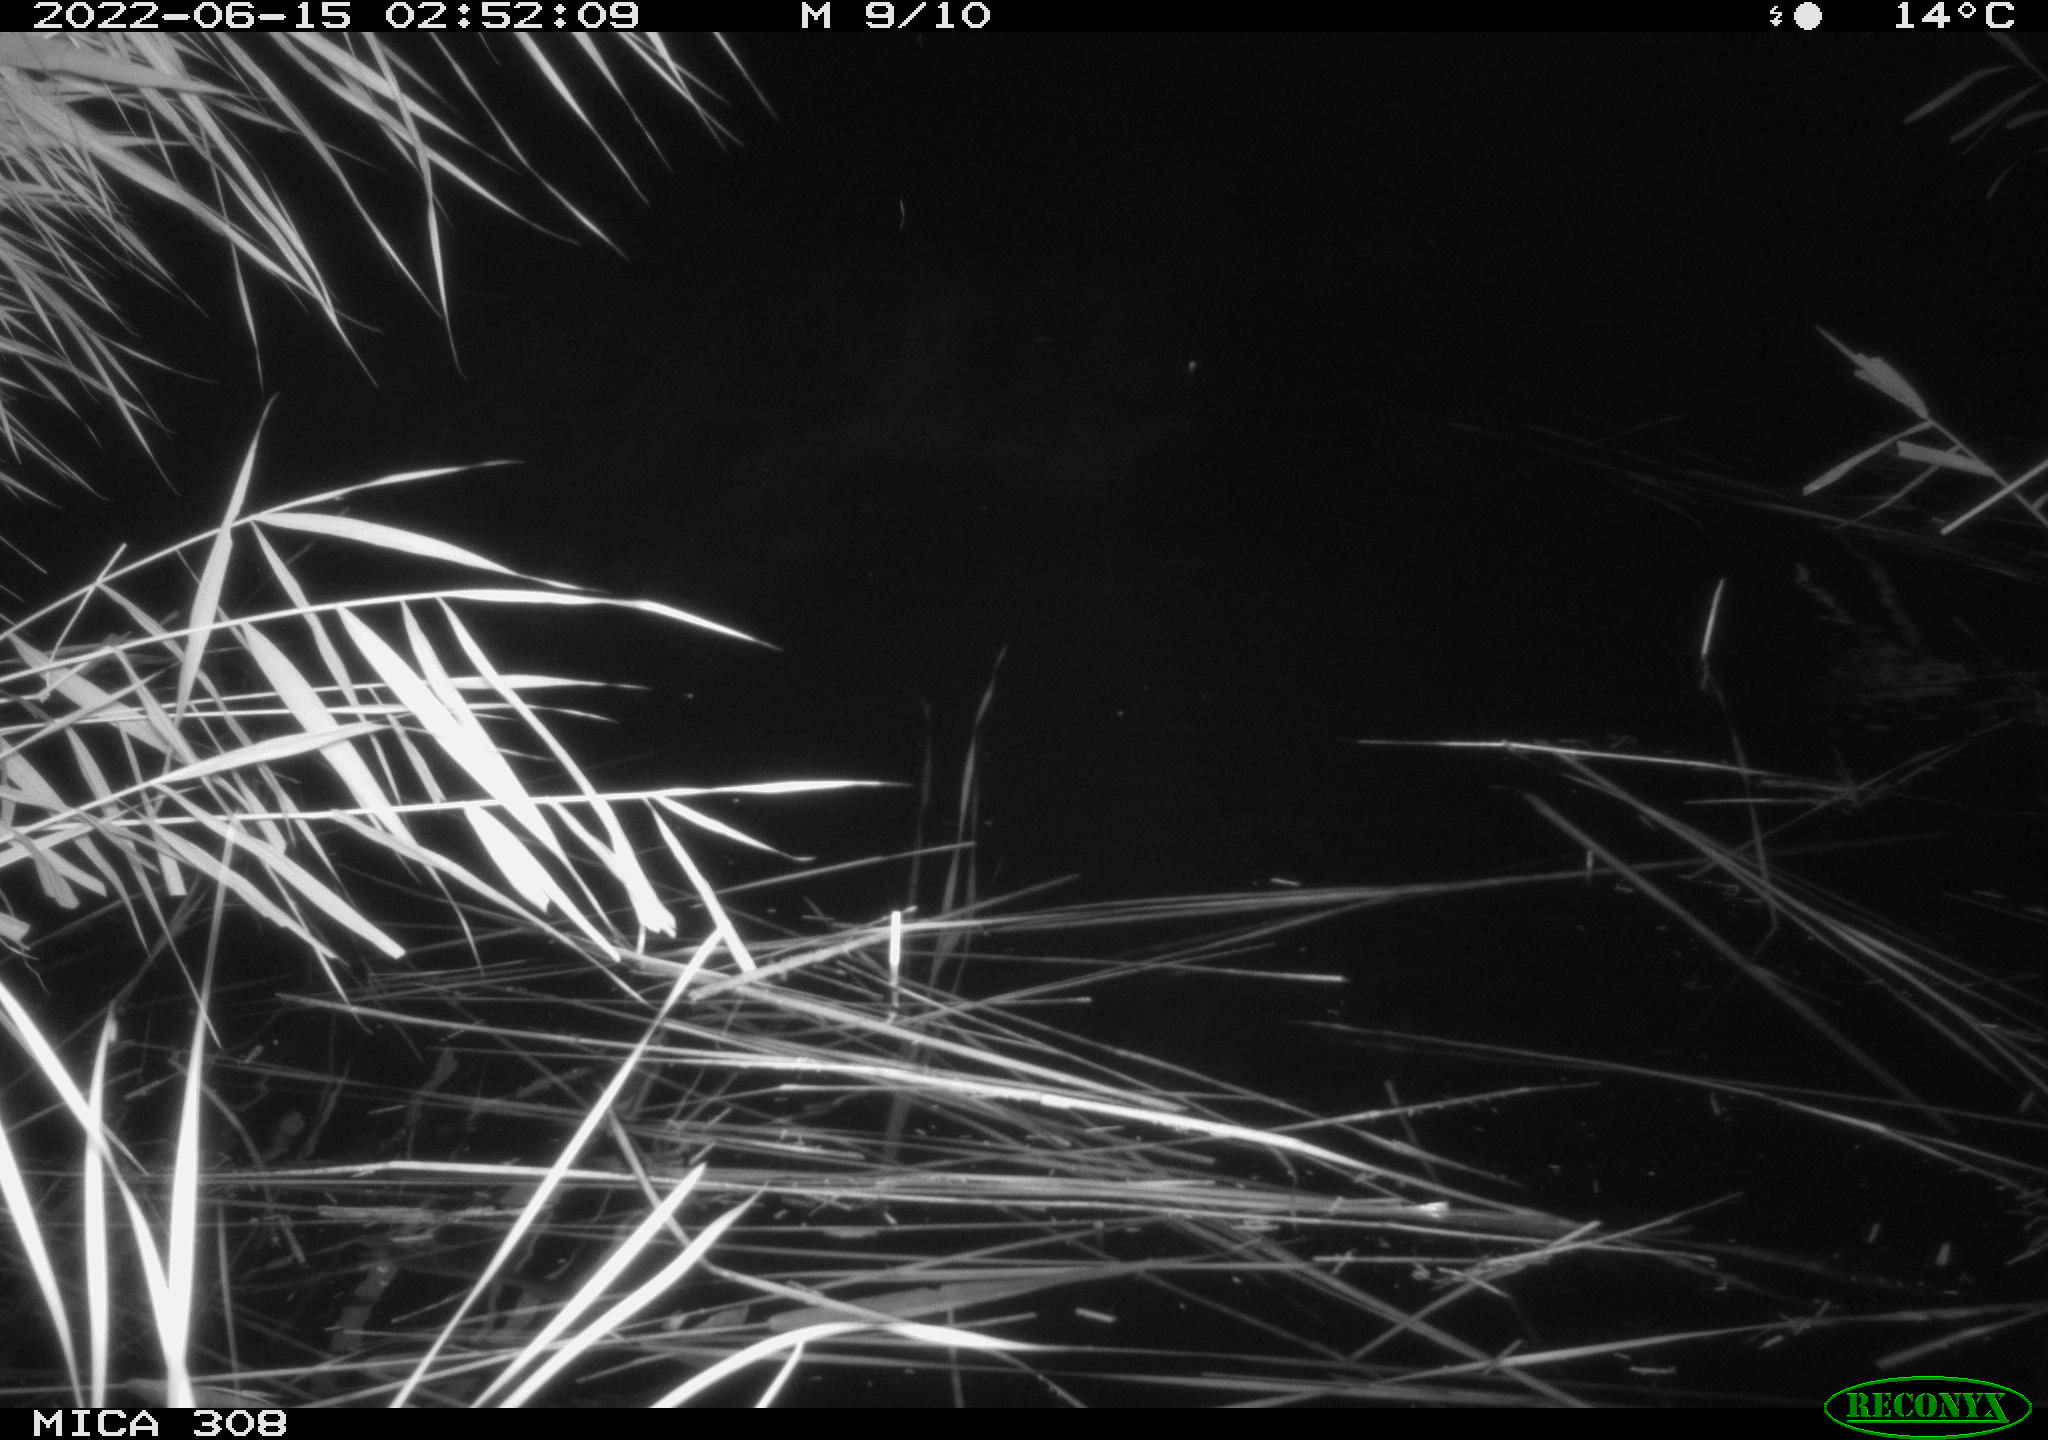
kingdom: Animalia
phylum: Chordata
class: Aves
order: Anseriformes
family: Anatidae
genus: Anas
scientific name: Anas platyrhynchos
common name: Mallard
